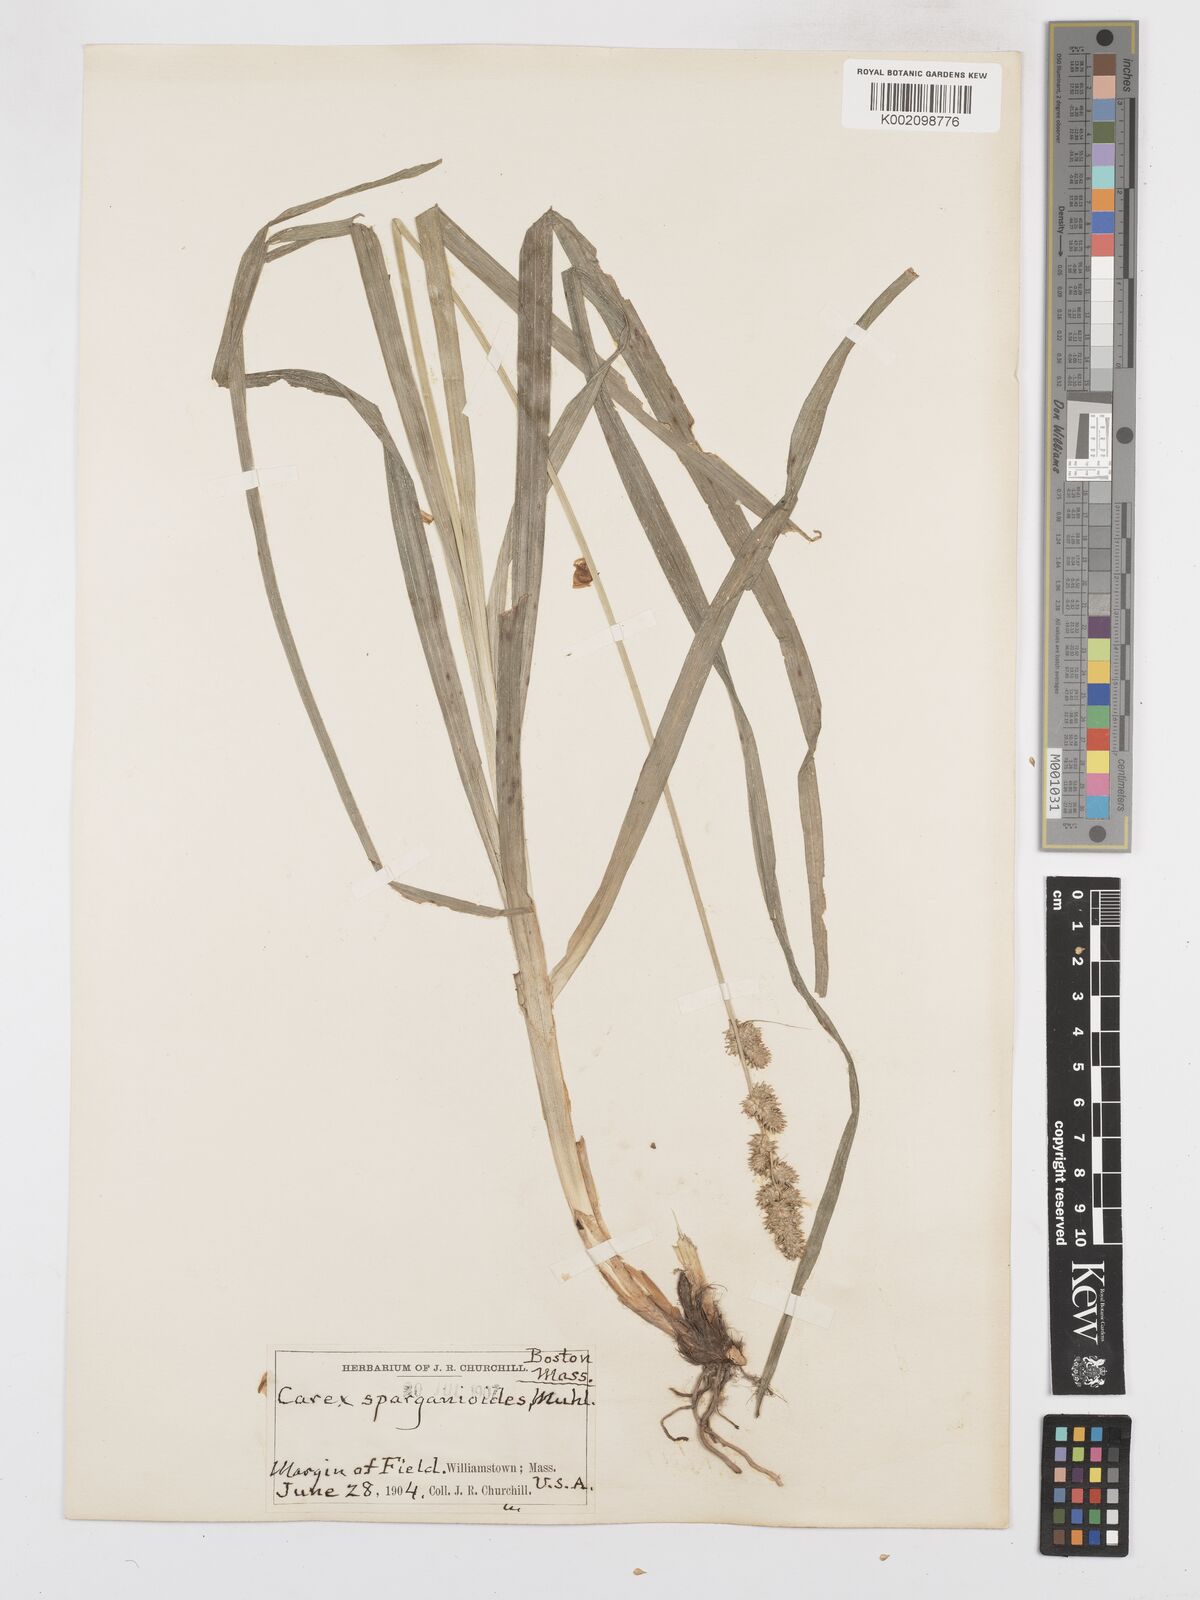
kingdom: Plantae
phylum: Tracheophyta
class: Liliopsida
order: Poales
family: Cyperaceae
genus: Carex
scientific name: Carex sparganioides
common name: Burreed sedge
